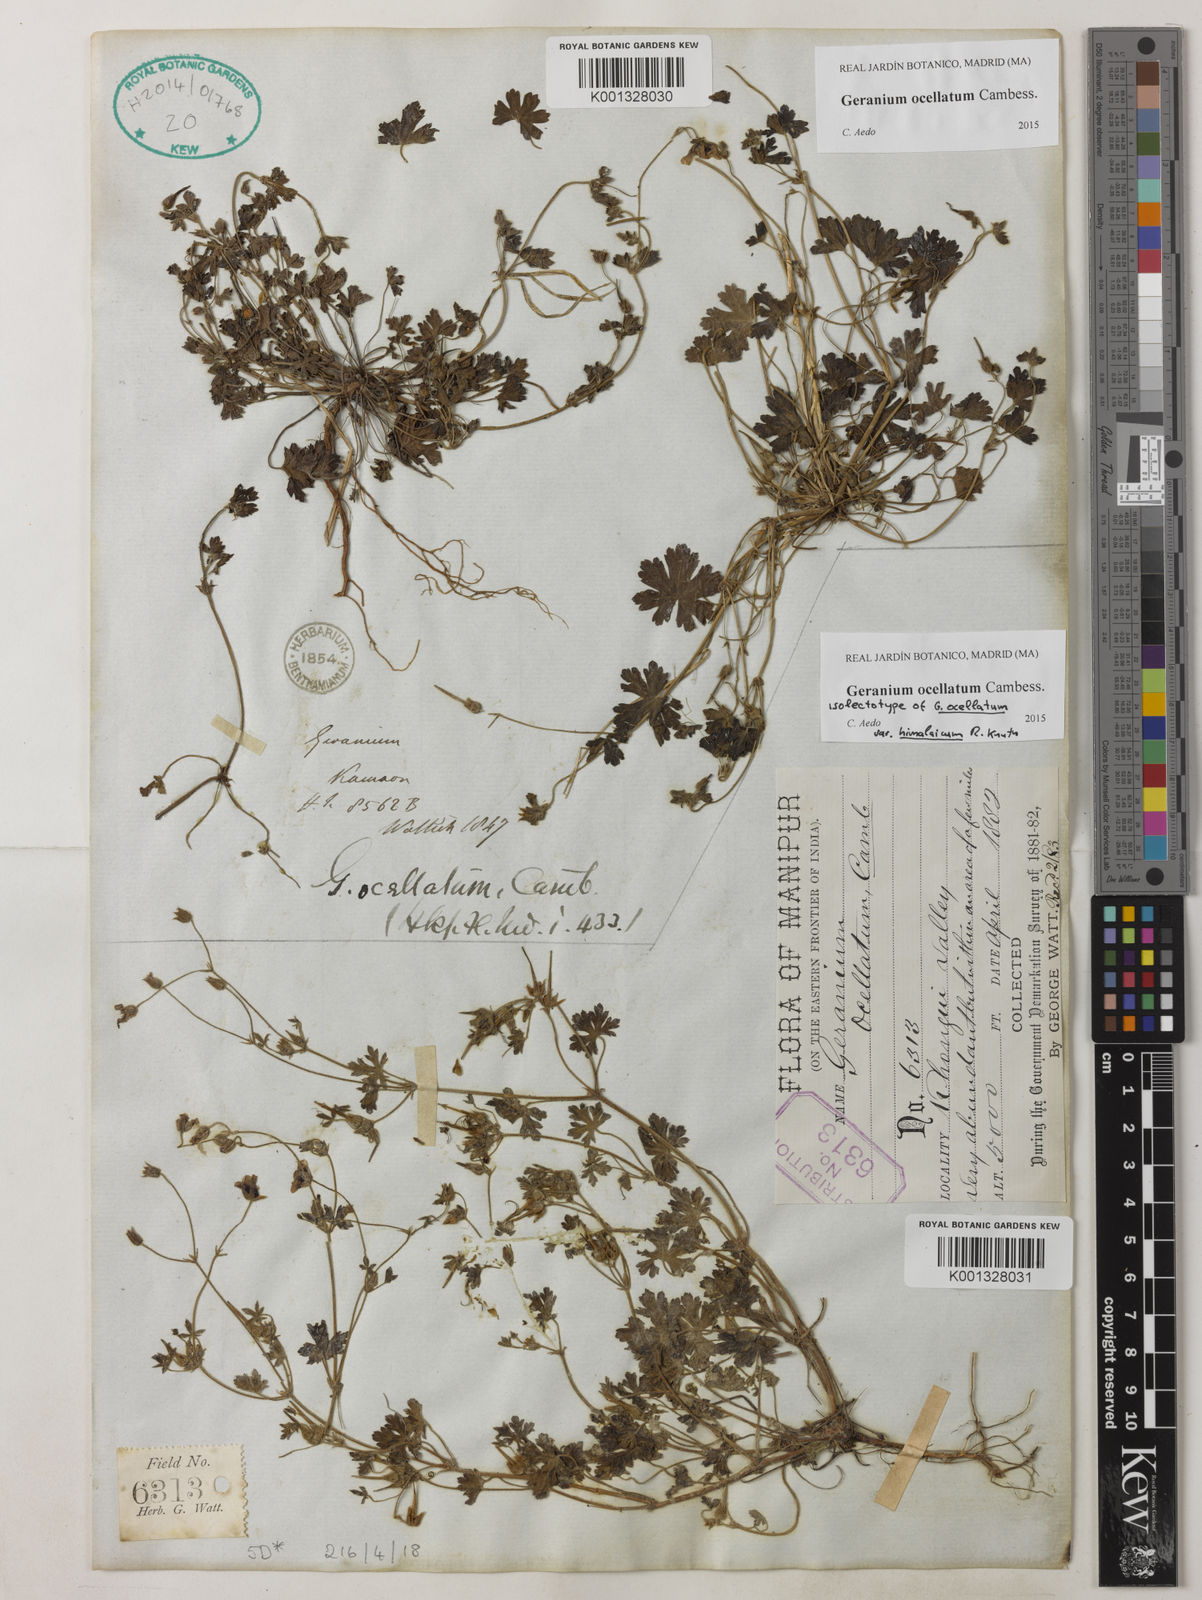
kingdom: Plantae
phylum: Tracheophyta
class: Magnoliopsida
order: Geraniales
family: Geraniaceae
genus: Geranium
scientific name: Geranium ocellatum
